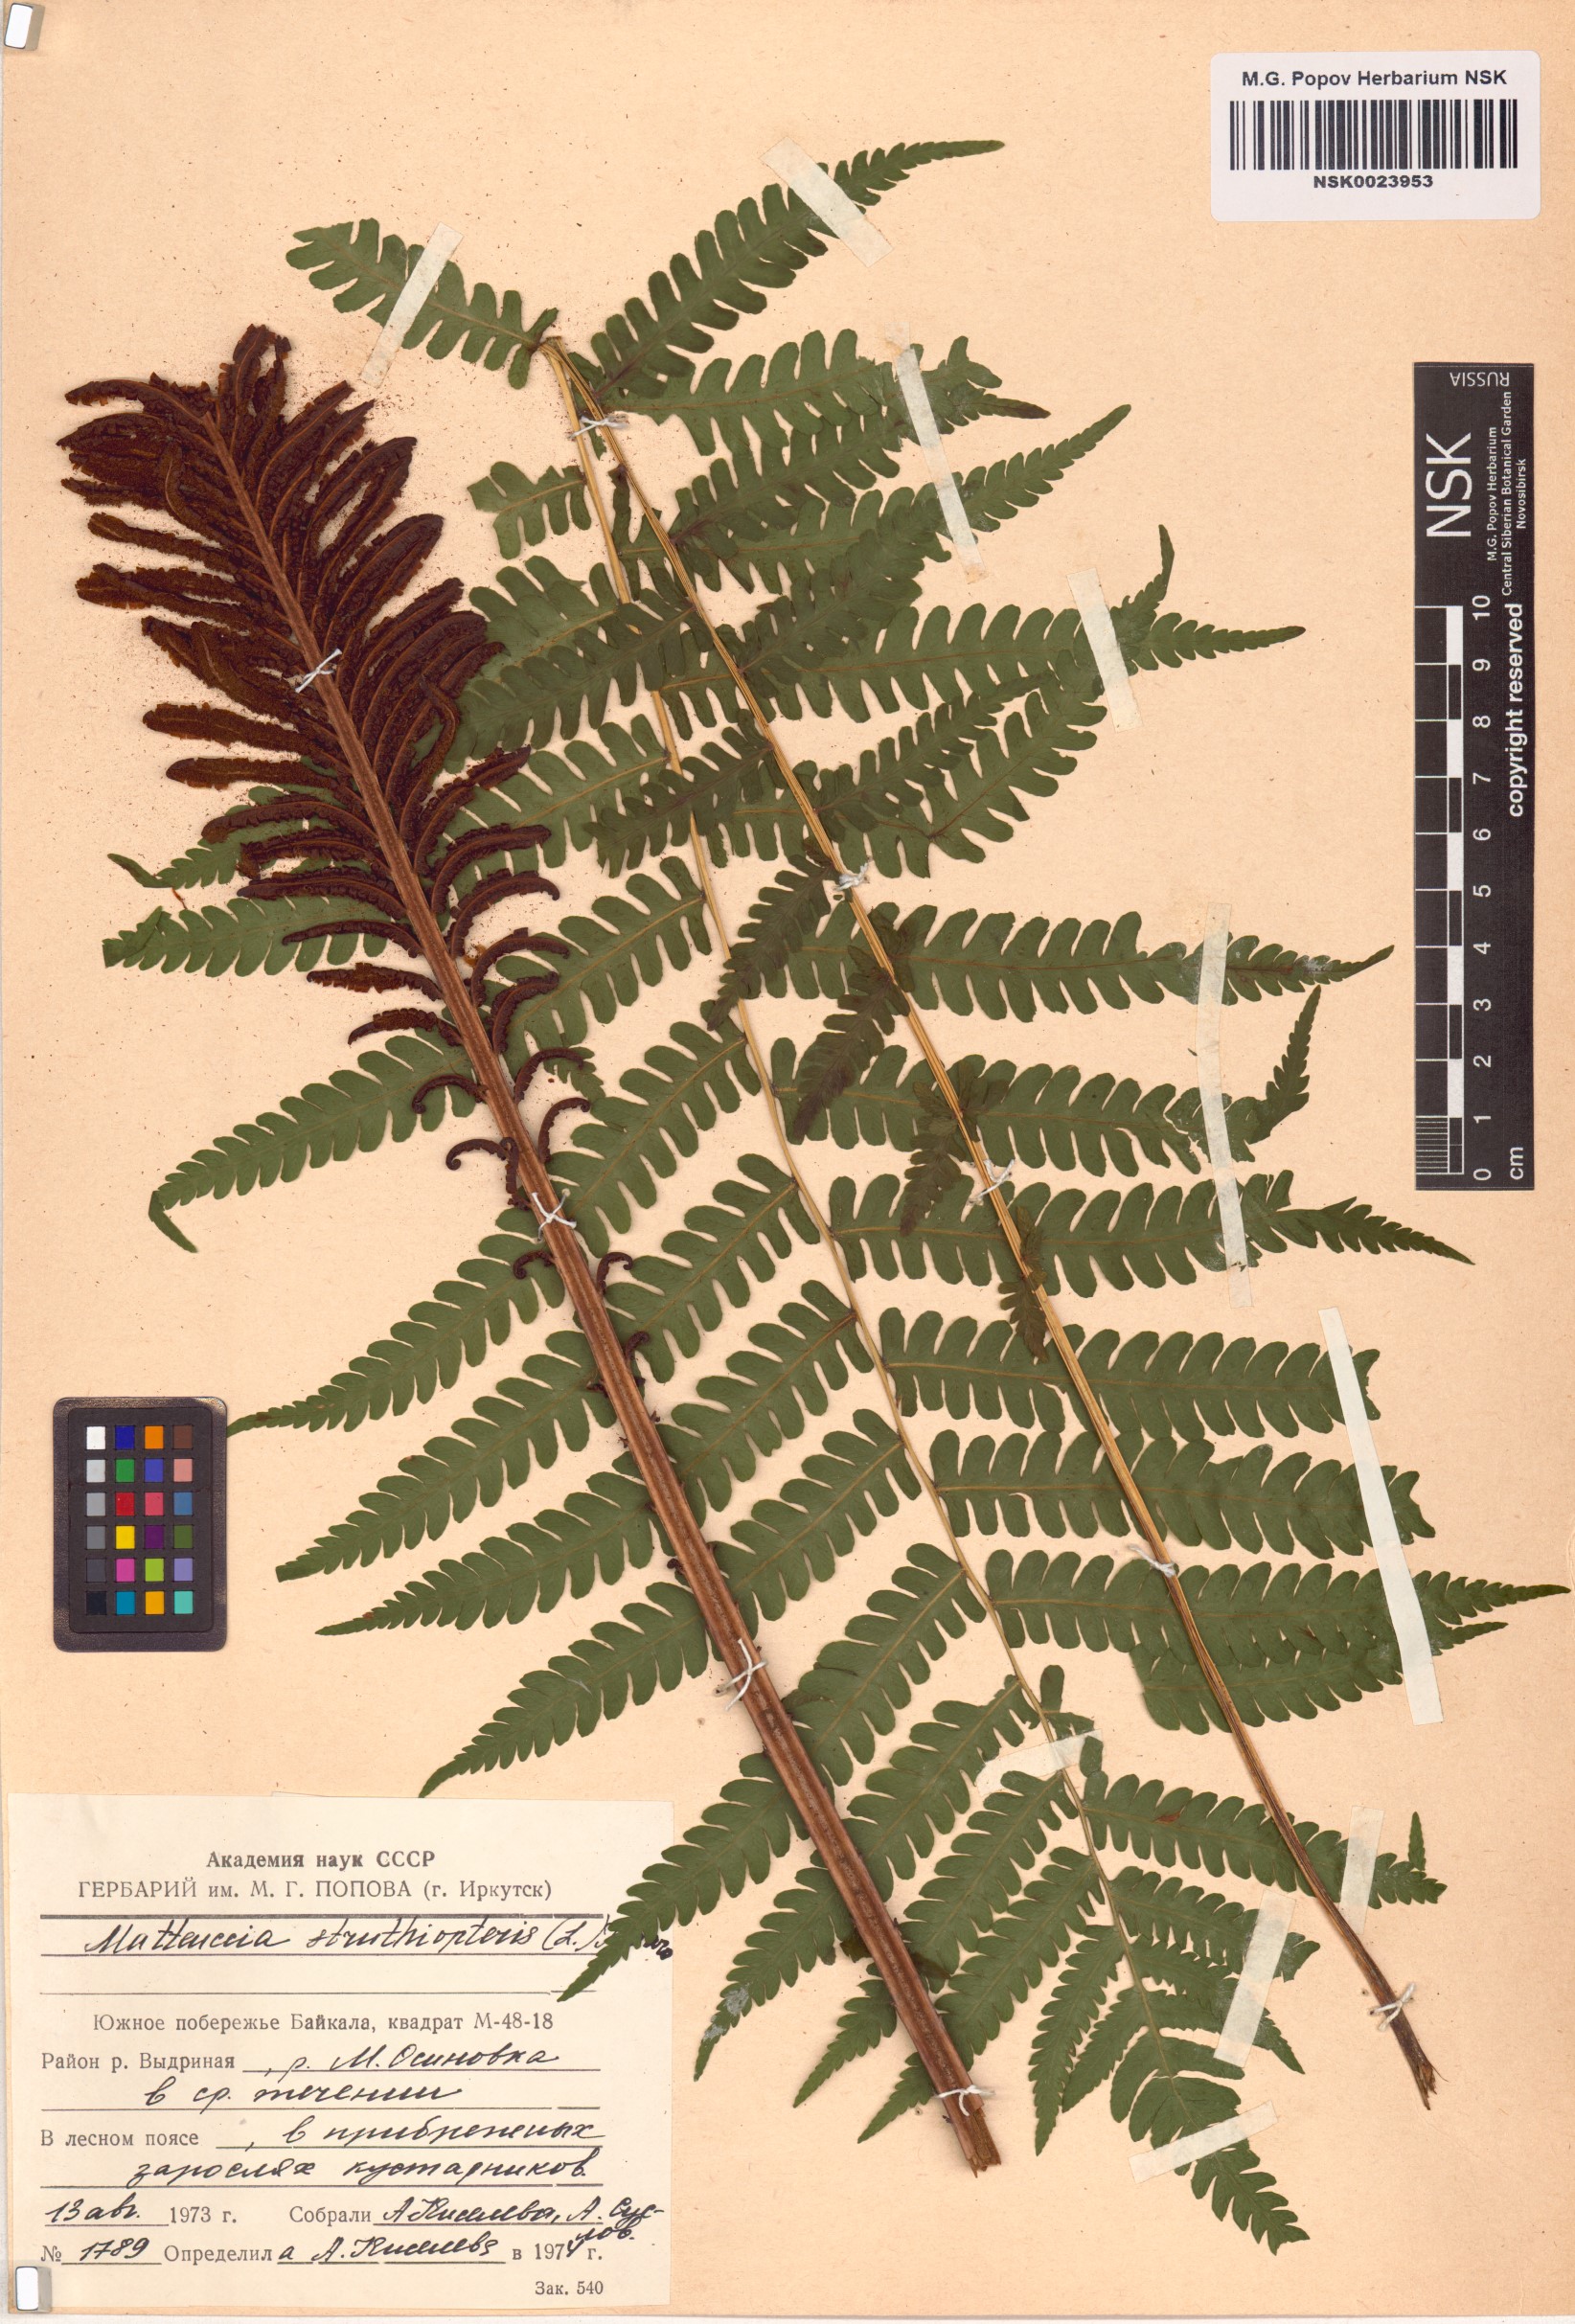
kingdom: Plantae
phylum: Tracheophyta
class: Polypodiopsida
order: Polypodiales
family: Onocleaceae
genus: Matteuccia
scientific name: Matteuccia struthiopteris
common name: Ostrich fern
